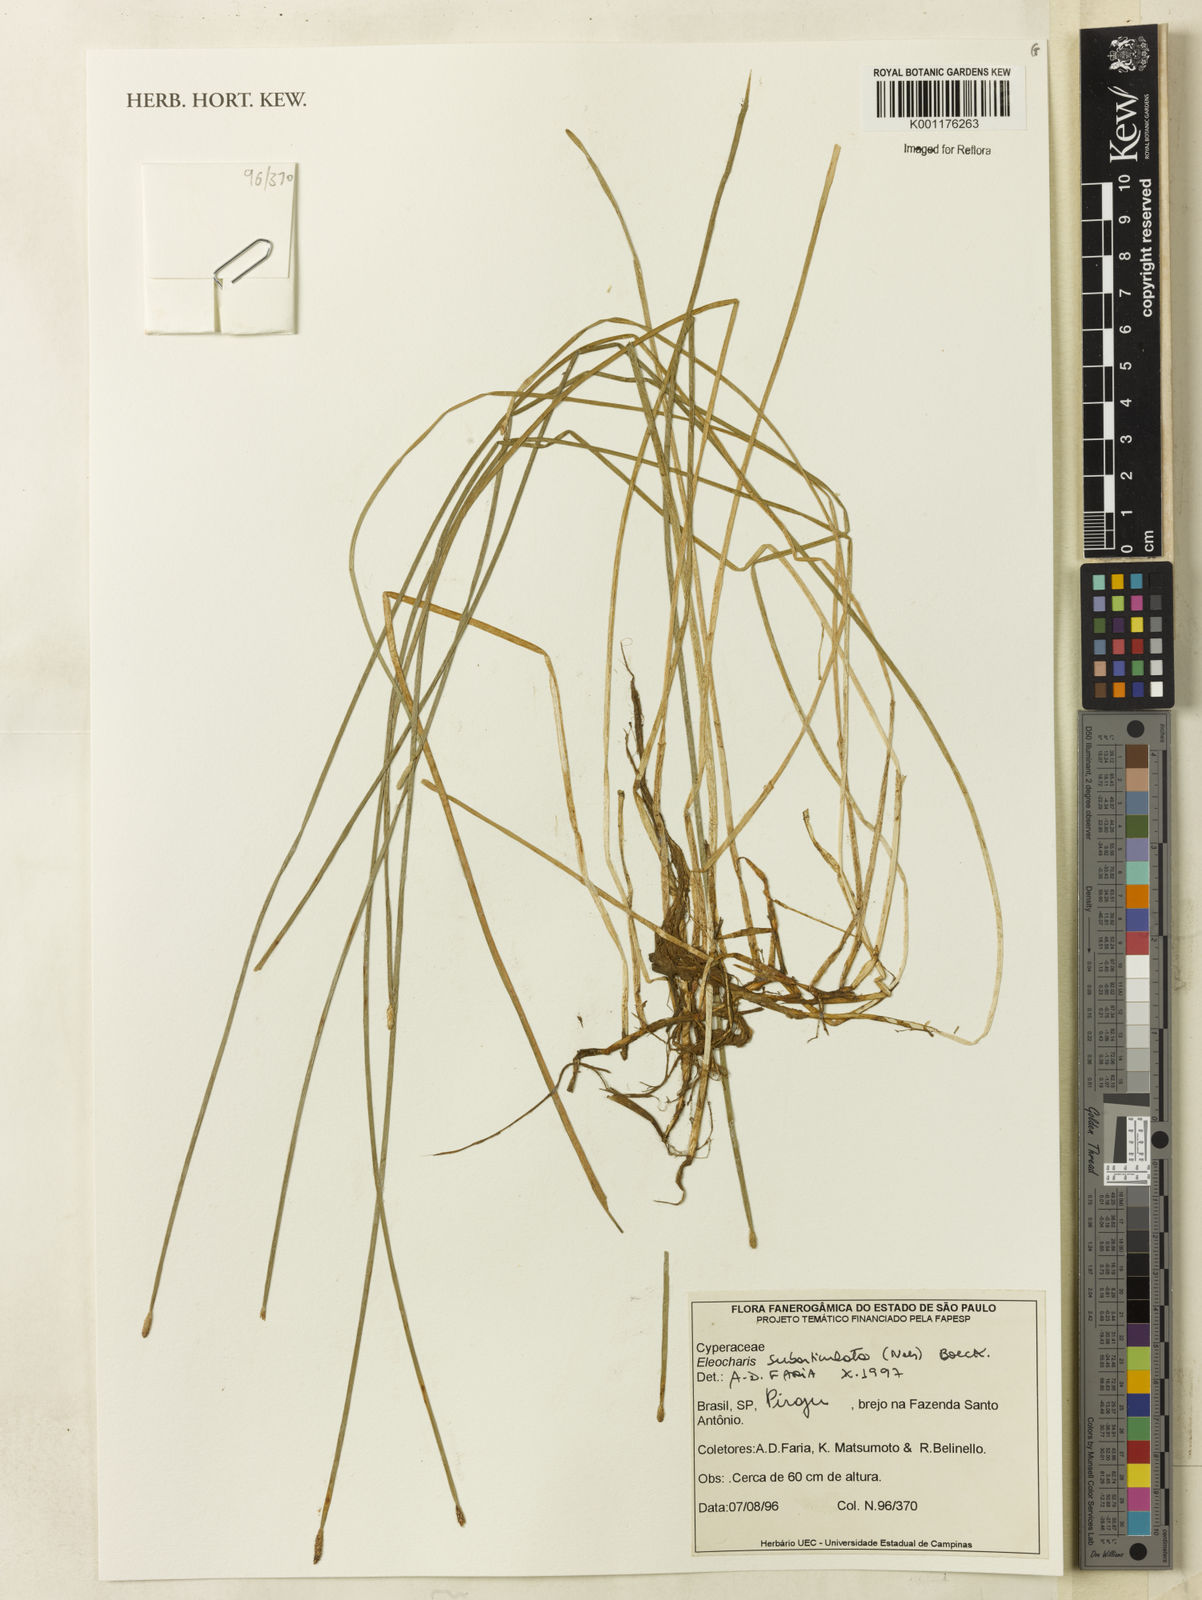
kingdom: Plantae
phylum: Tracheophyta
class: Liliopsida
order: Poales
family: Cyperaceae
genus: Eleocharis
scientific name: Eleocharis subarticulata
